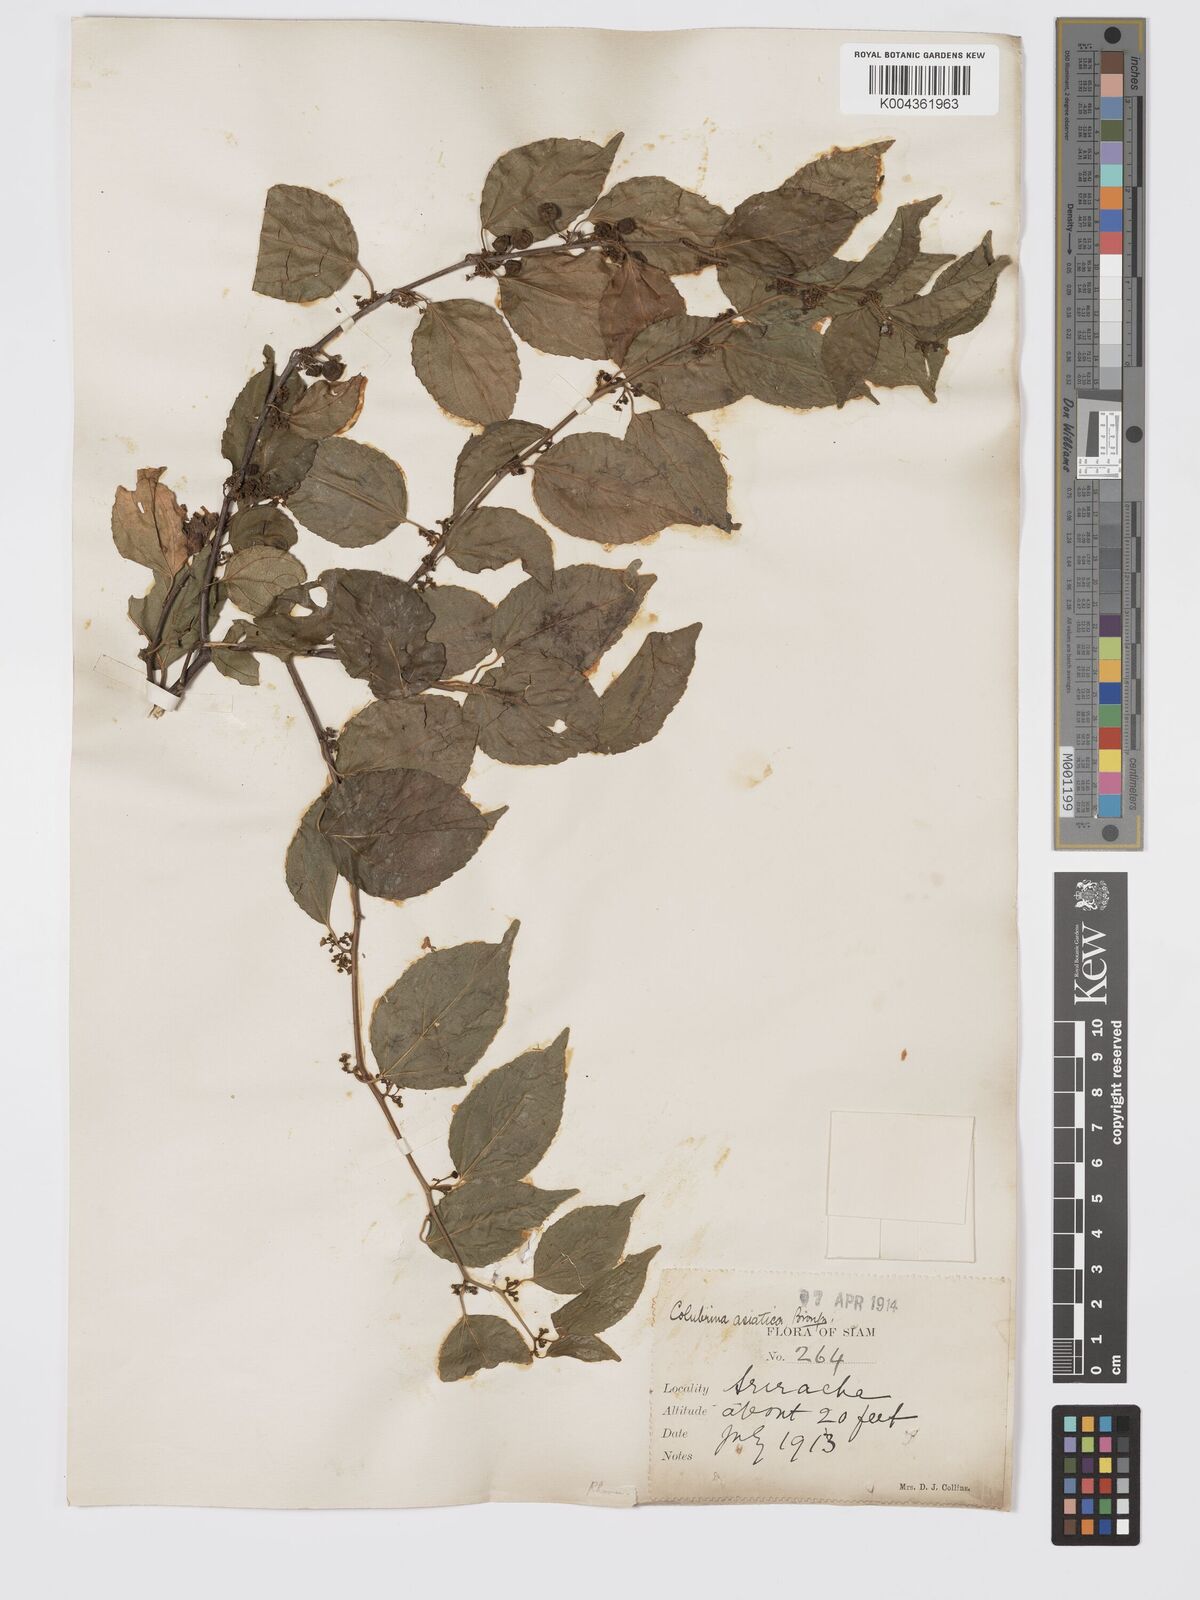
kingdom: Plantae
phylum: Tracheophyta
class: Magnoliopsida
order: Rosales
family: Rhamnaceae
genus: Colubrina
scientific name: Colubrina asiatica
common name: Asian nakedwood
